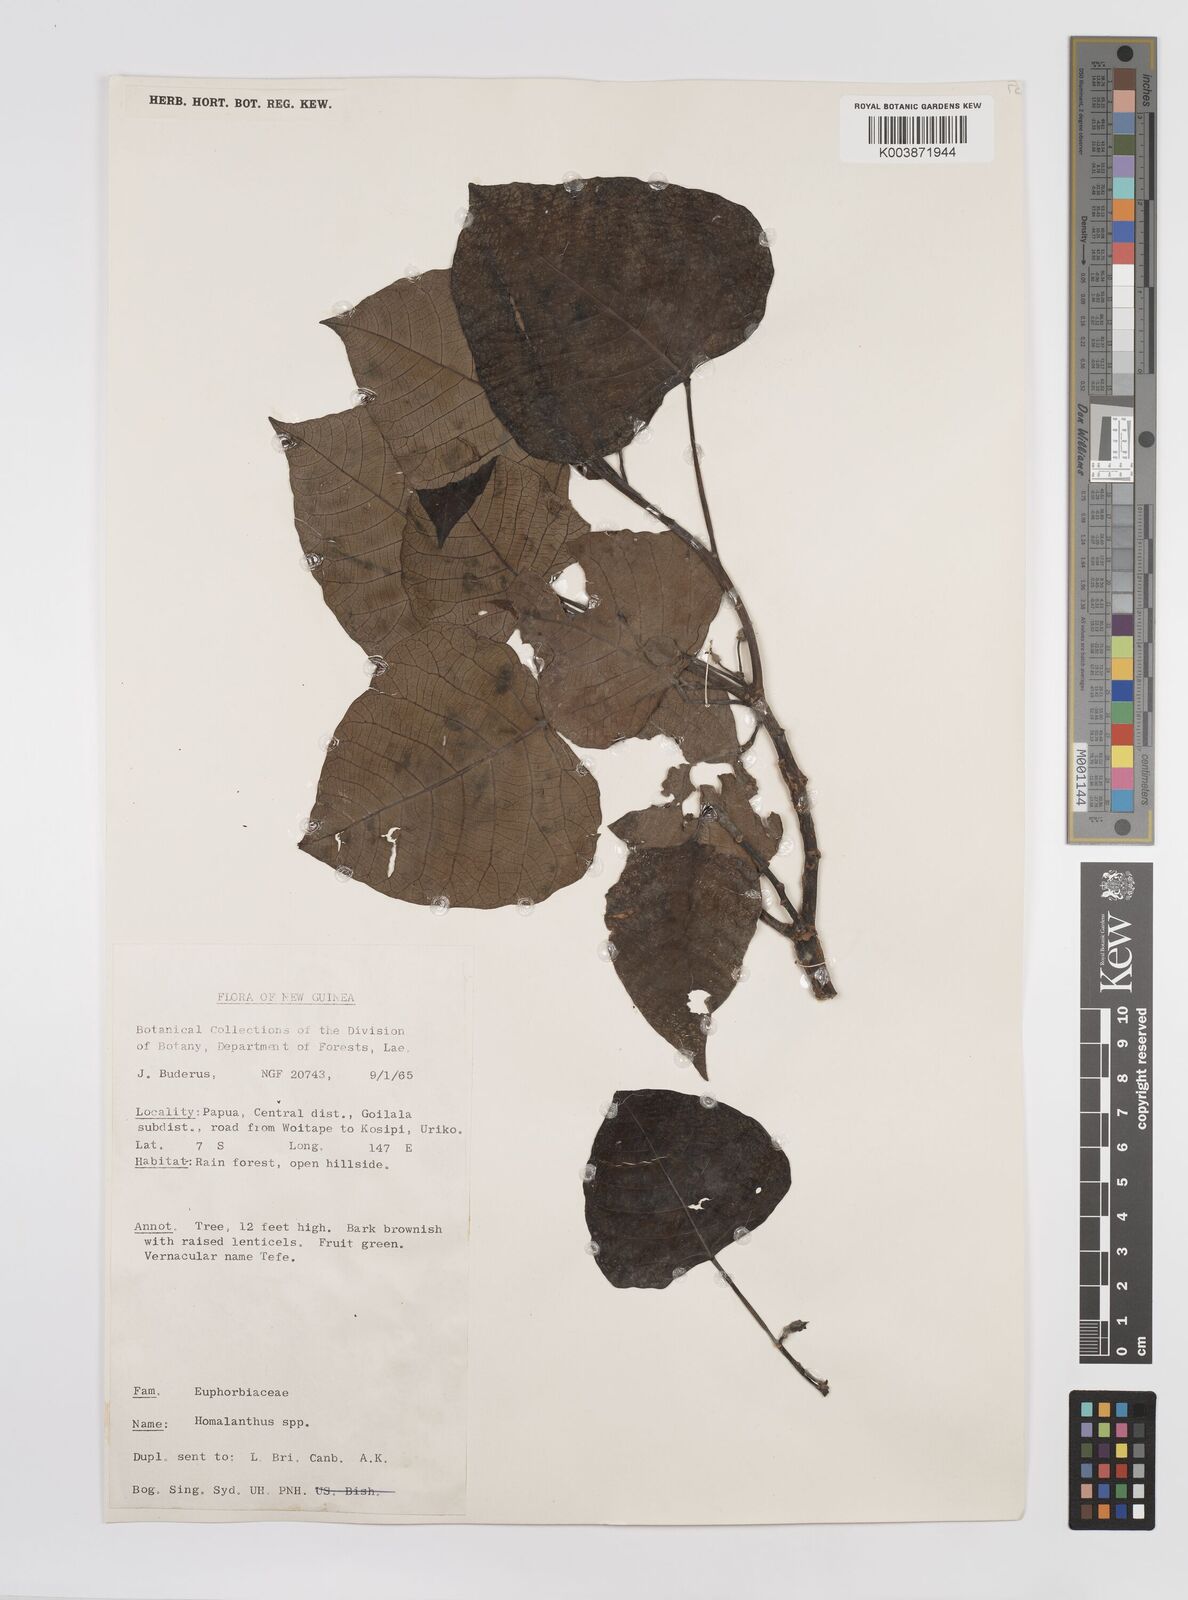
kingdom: Plantae
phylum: Tracheophyta
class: Magnoliopsida
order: Malpighiales
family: Euphorbiaceae
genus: Homalanthus
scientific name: Homalanthus novoguineensis
